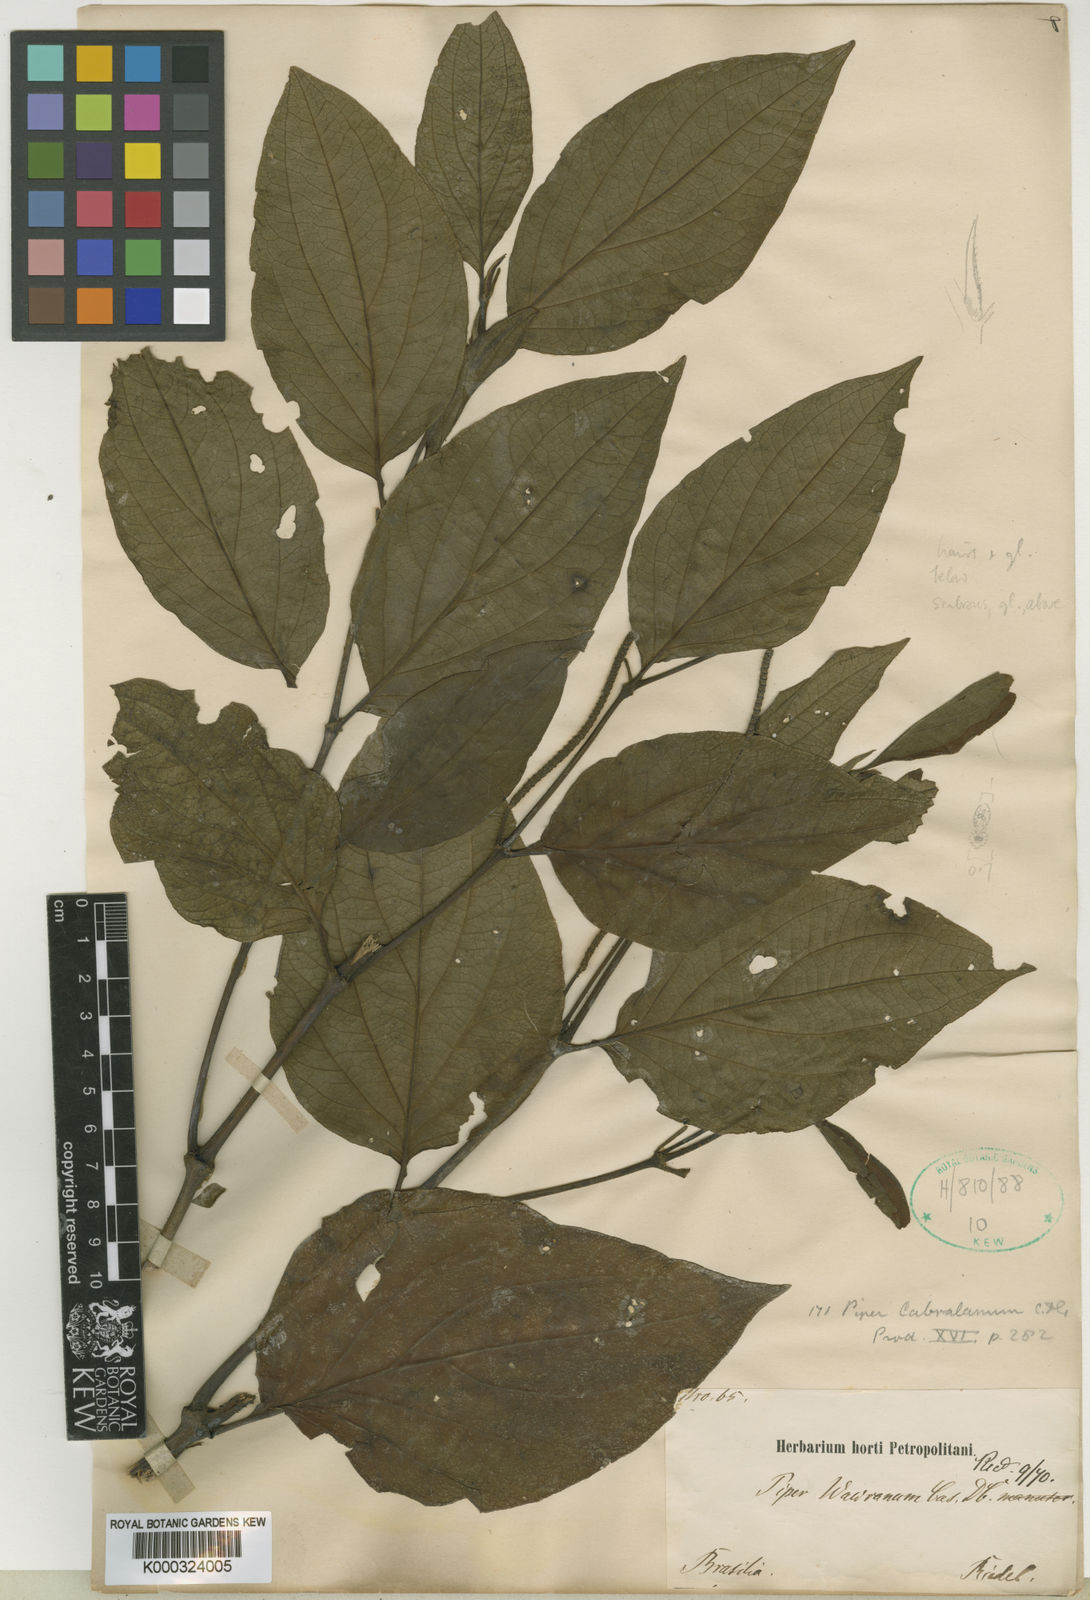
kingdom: Plantae
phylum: Tracheophyta
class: Magnoliopsida
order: Piperales
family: Piperaceae
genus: Piper
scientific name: Piper cabralanum
